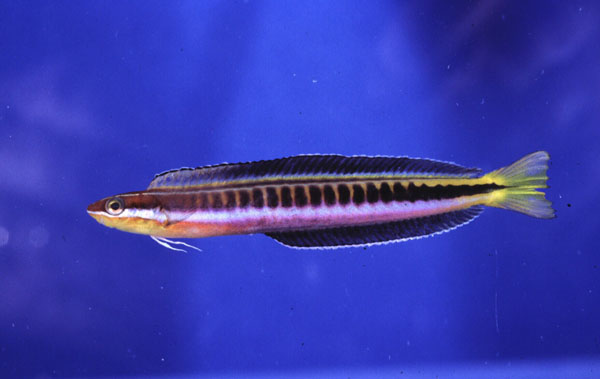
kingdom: Animalia
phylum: Chordata
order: Perciformes
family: Blenniidae
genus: Plagiotremus
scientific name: Plagiotremus tapeinosoma
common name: Hit and run blenny
